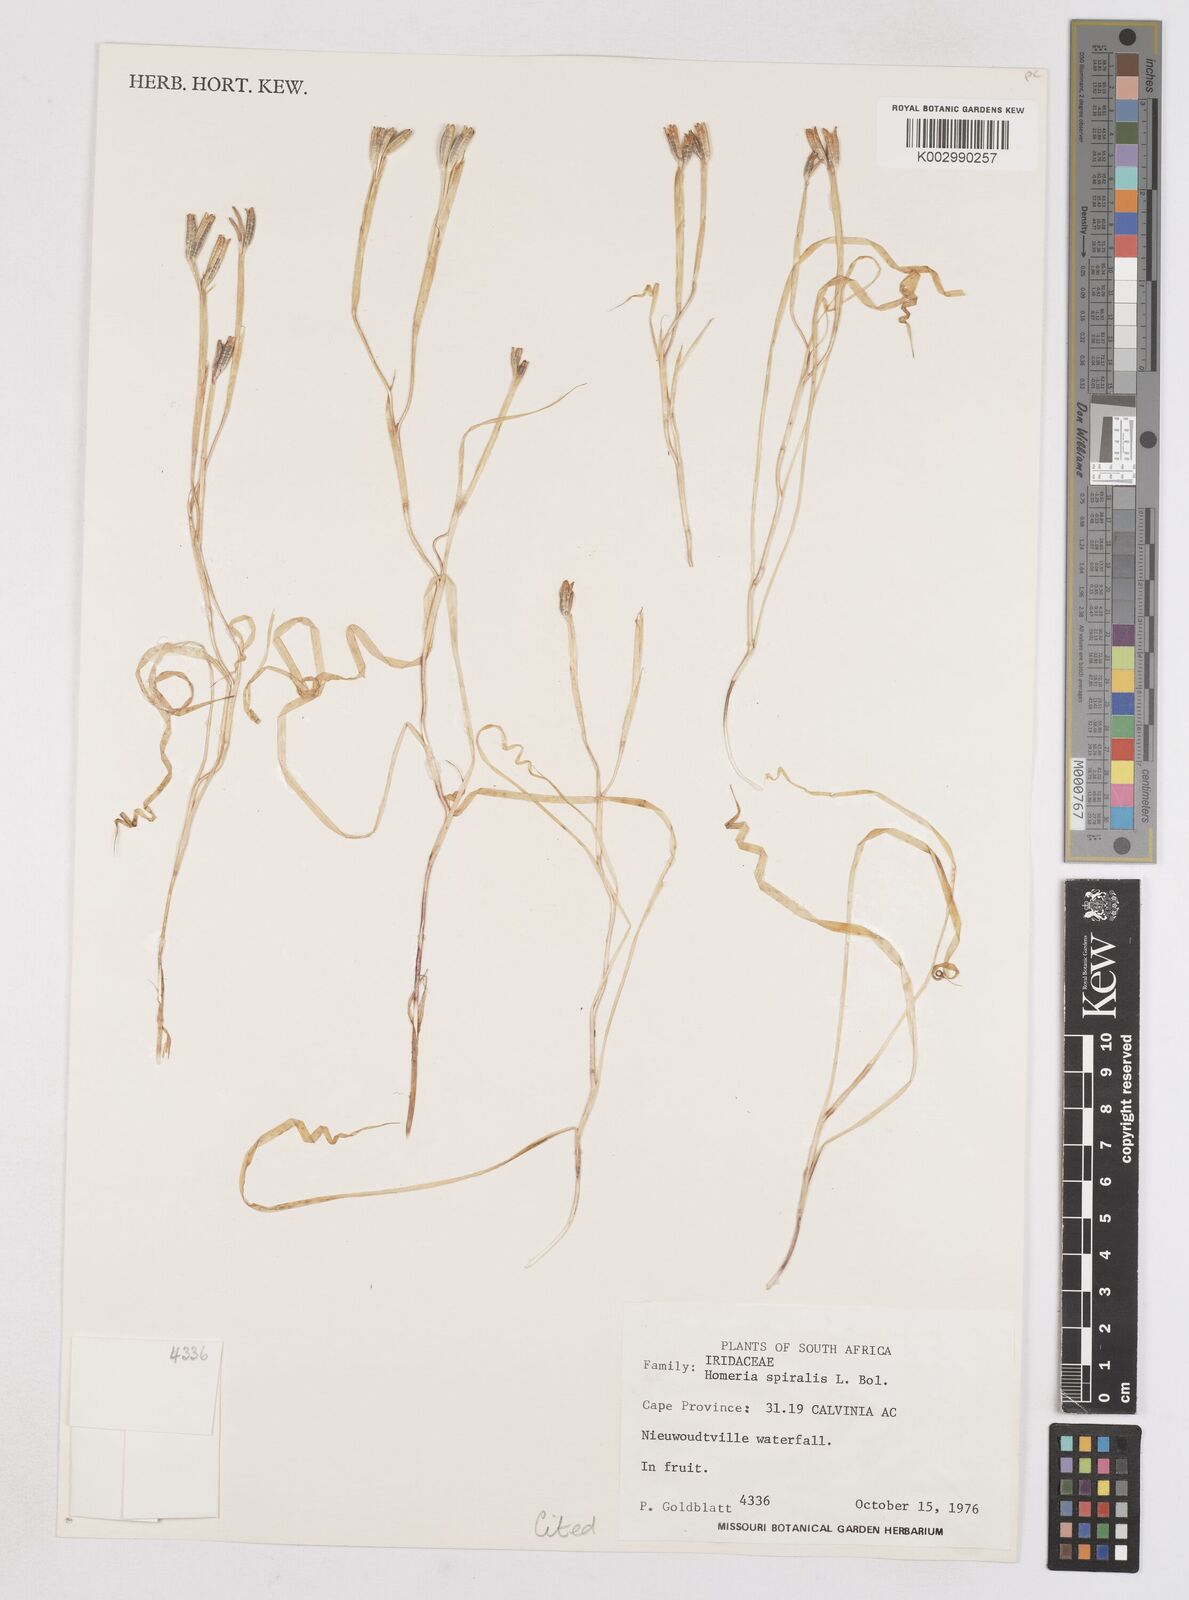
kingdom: Plantae
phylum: Tracheophyta
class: Liliopsida
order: Asparagales
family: Iridaceae
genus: Aristea
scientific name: Aristea spiralis
